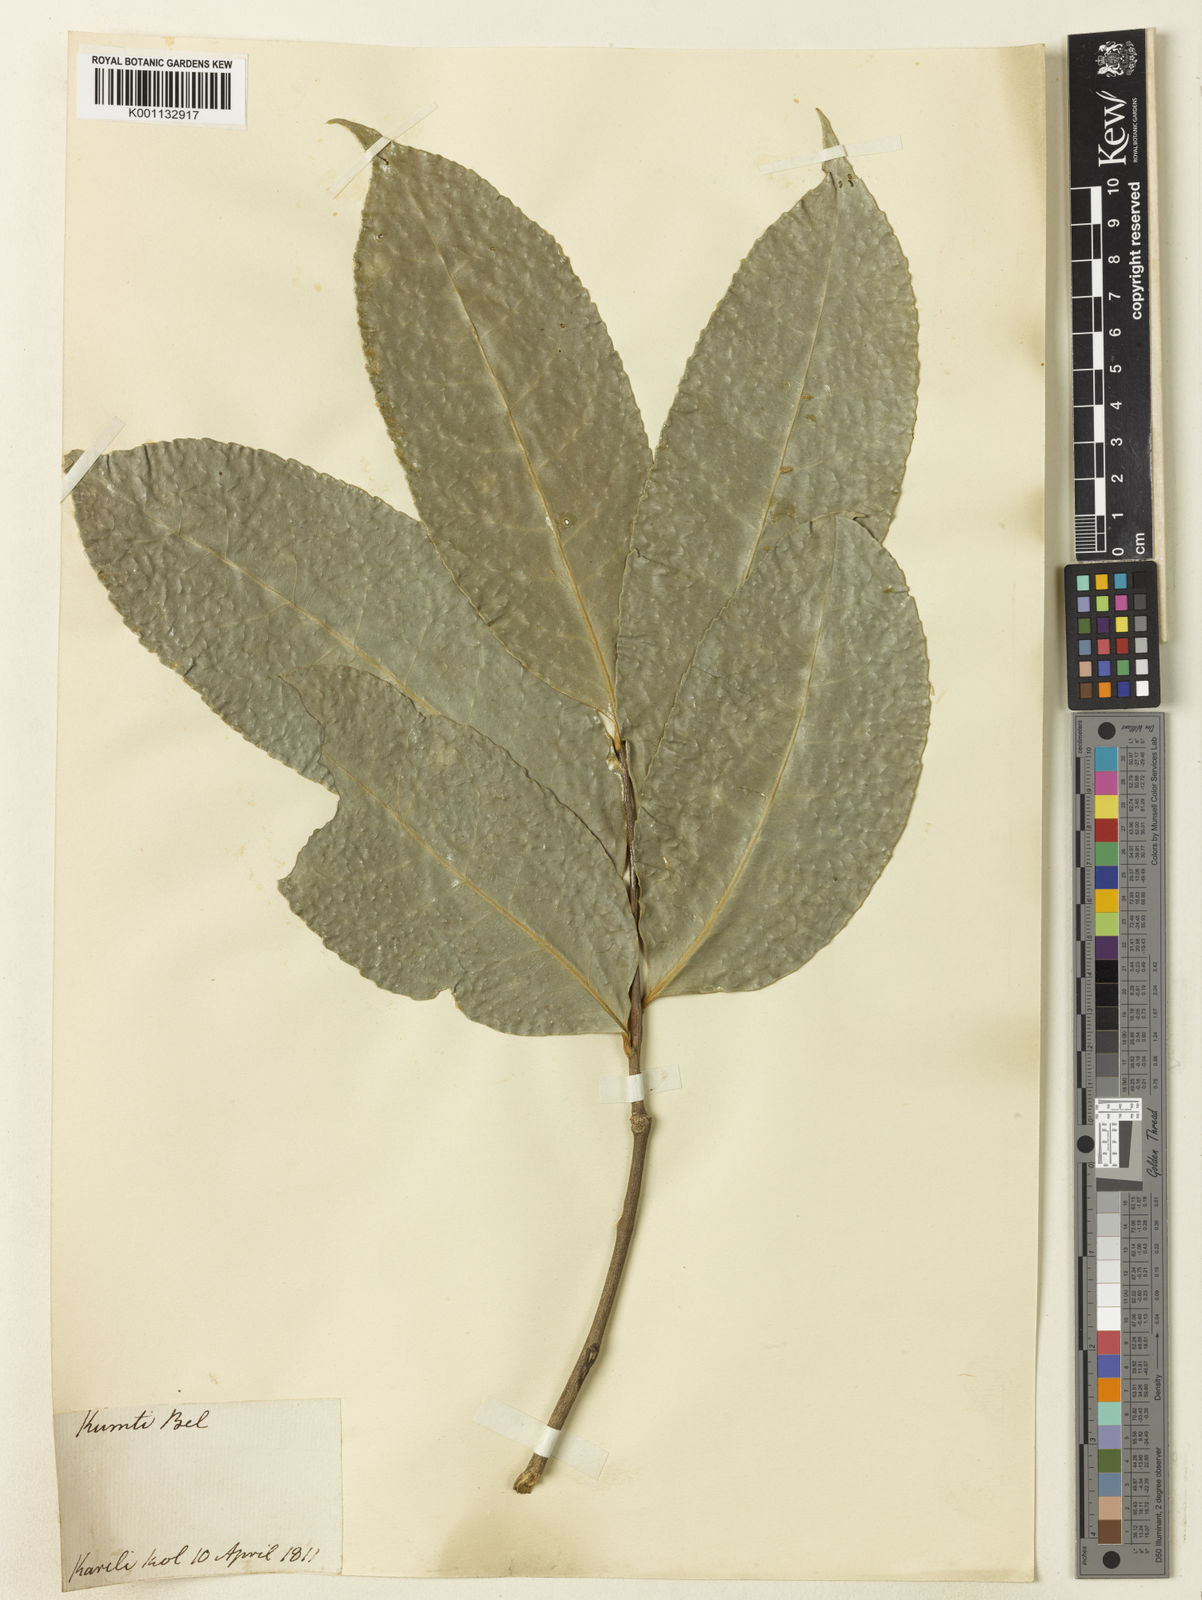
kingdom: Plantae
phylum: Tracheophyta
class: Magnoliopsida
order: Malpighiales
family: Putranjivaceae
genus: Drypetes
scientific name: Drypetes
